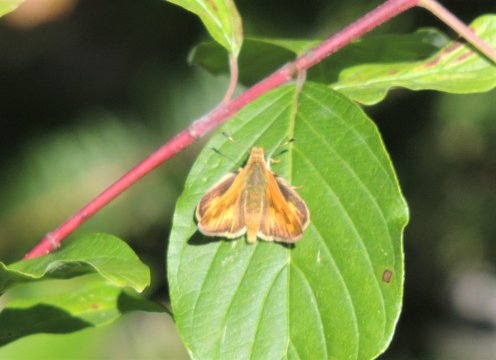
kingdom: Animalia
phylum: Arthropoda
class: Insecta
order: Lepidoptera
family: Hesperiidae
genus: Ochlodes
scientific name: Ochlodes sylvanoides
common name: Woodland Skipper
